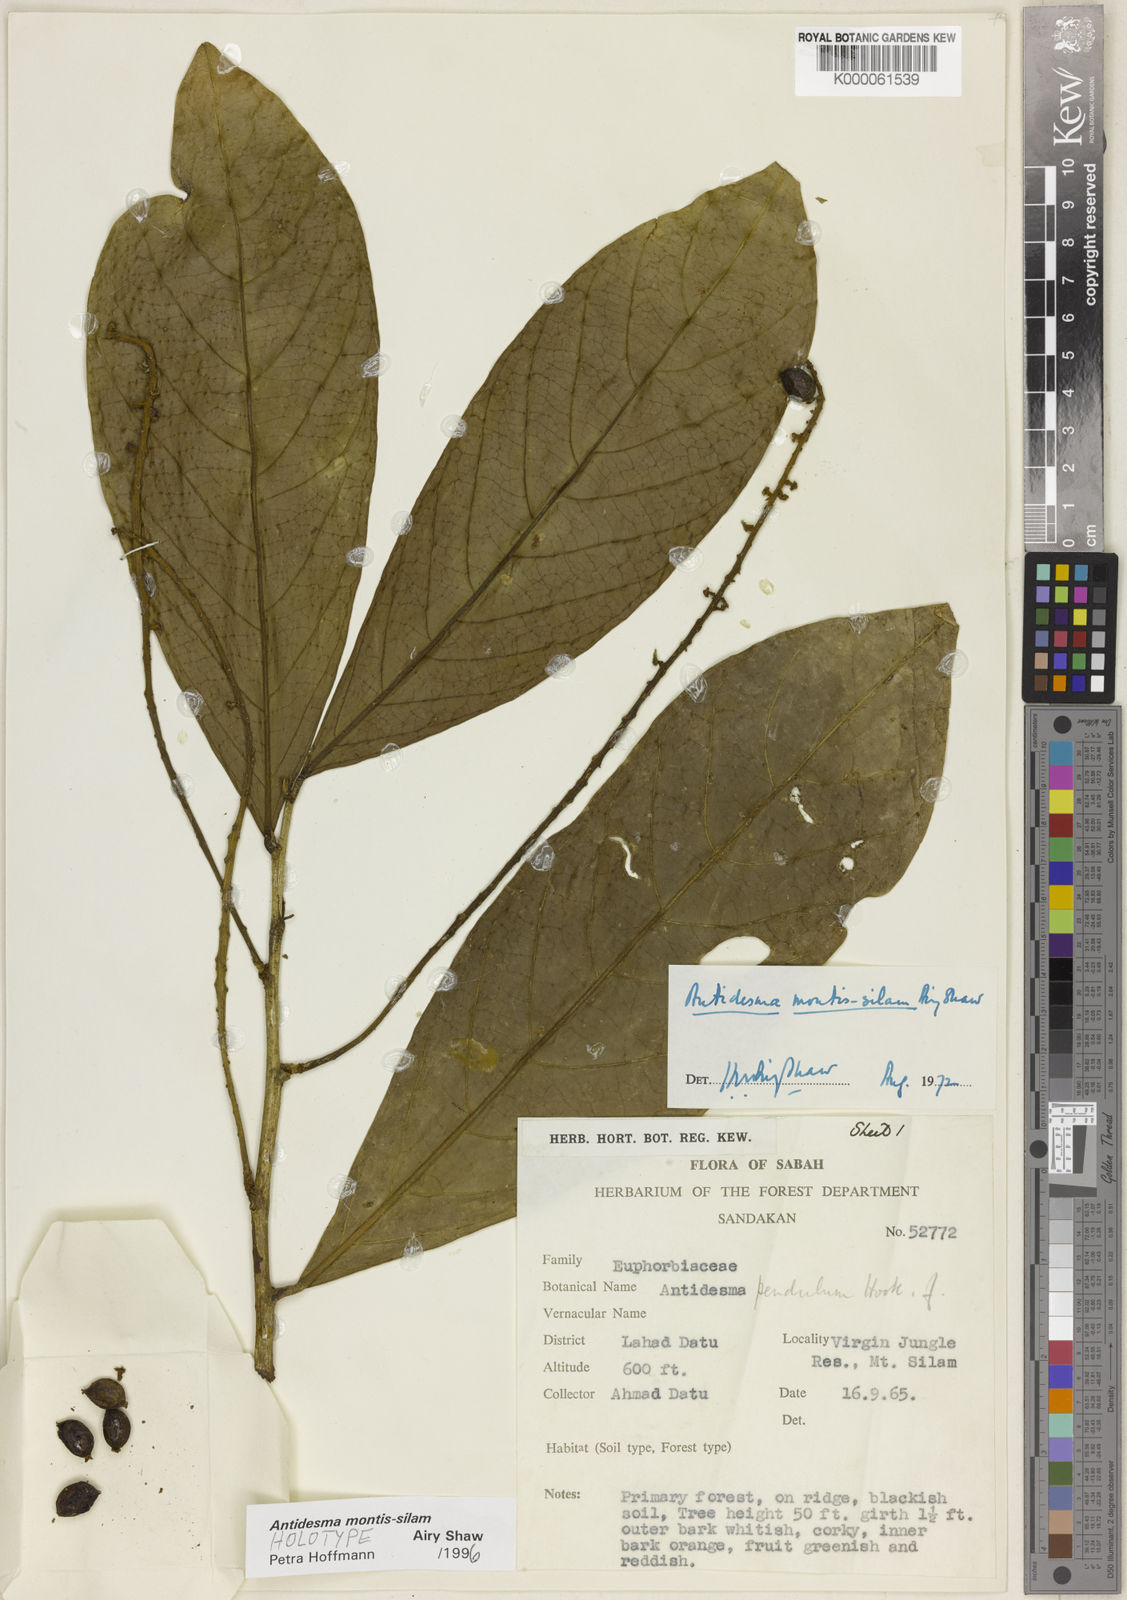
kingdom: Plantae
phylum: Tracheophyta
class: Magnoliopsida
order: Malpighiales
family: Phyllanthaceae
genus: Antidesma
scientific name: Antidesma montis-silam
